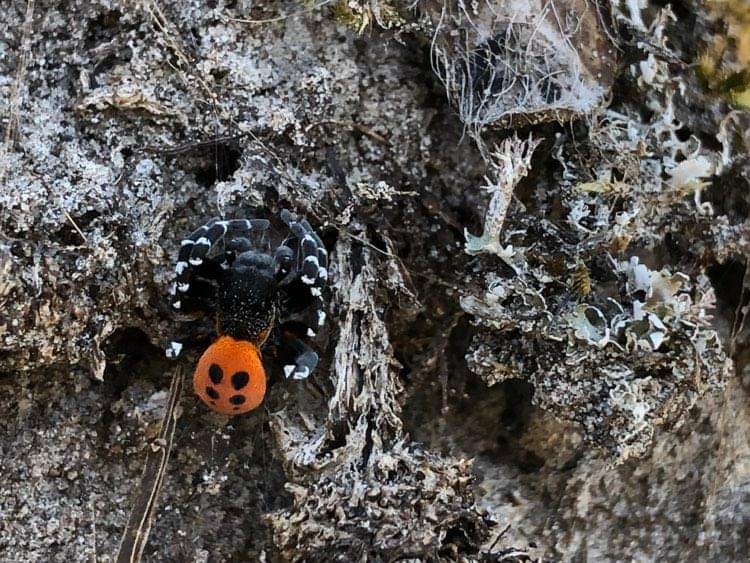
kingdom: Animalia
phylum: Arthropoda
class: Arachnida
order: Araneae
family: Eresidae
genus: Eresus
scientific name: Eresus sandaliatus
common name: Mariehøneedderkop
